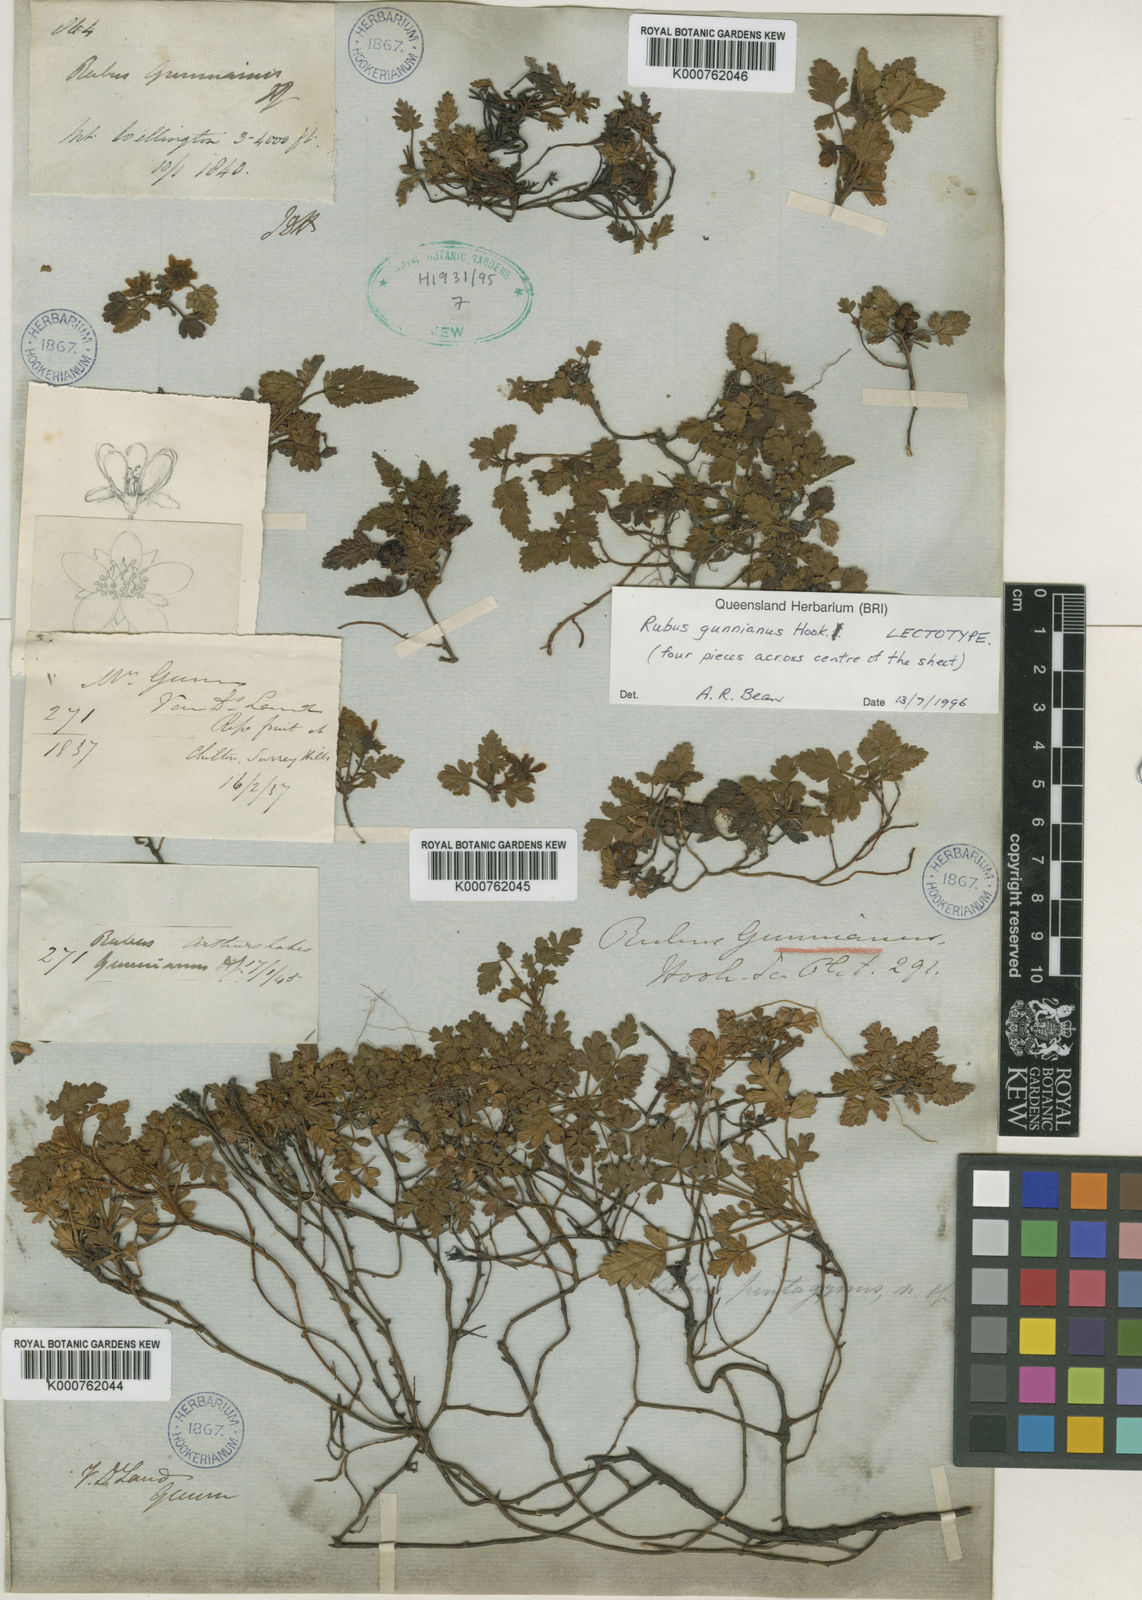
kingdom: Plantae
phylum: Tracheophyta
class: Magnoliopsida
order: Rosales
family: Rosaceae
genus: Rubus
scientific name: Rubus gunnianus
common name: Mountain raspberry
